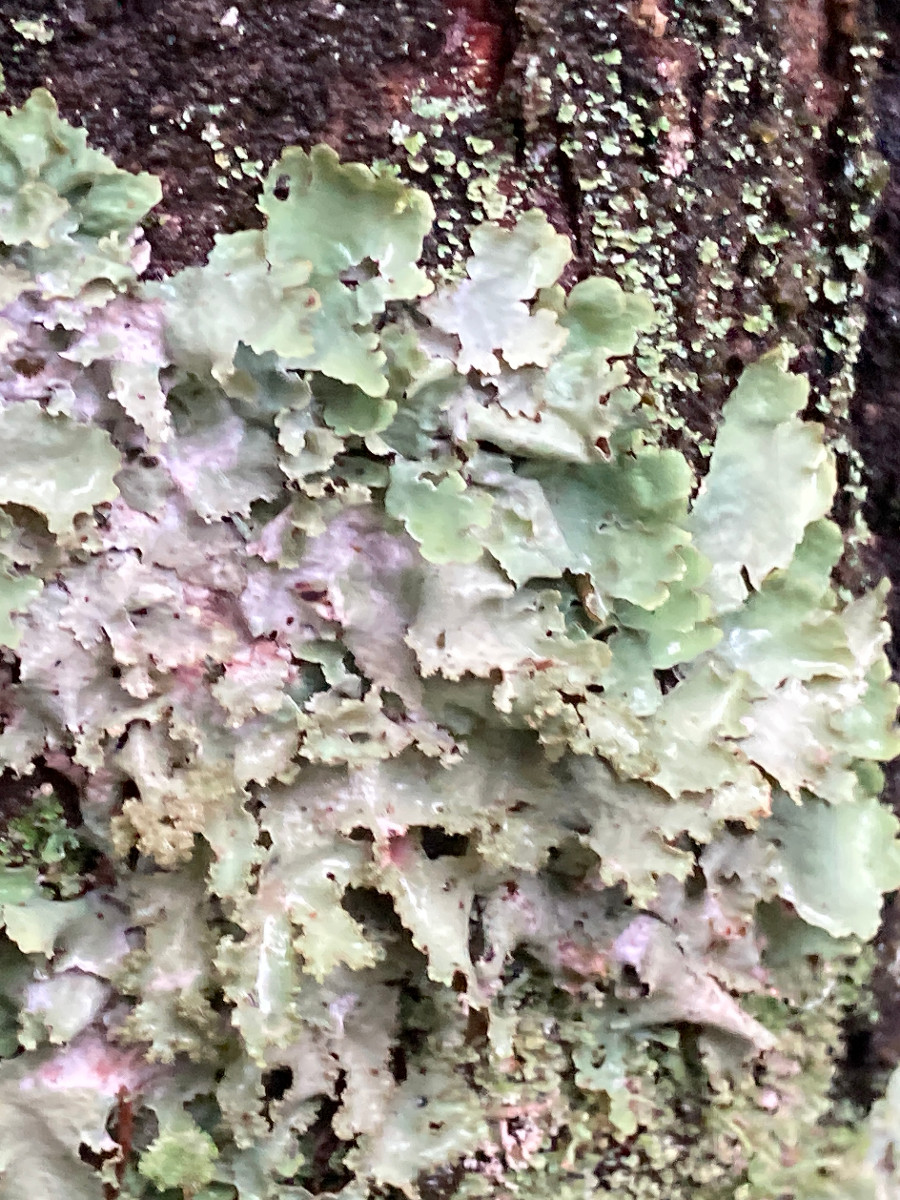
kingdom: Fungi
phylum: Ascomycota
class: Lecanoromycetes
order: Lecanorales
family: Parmeliaceae
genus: Platismatia
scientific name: Platismatia glauca
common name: blågrå papirlav
